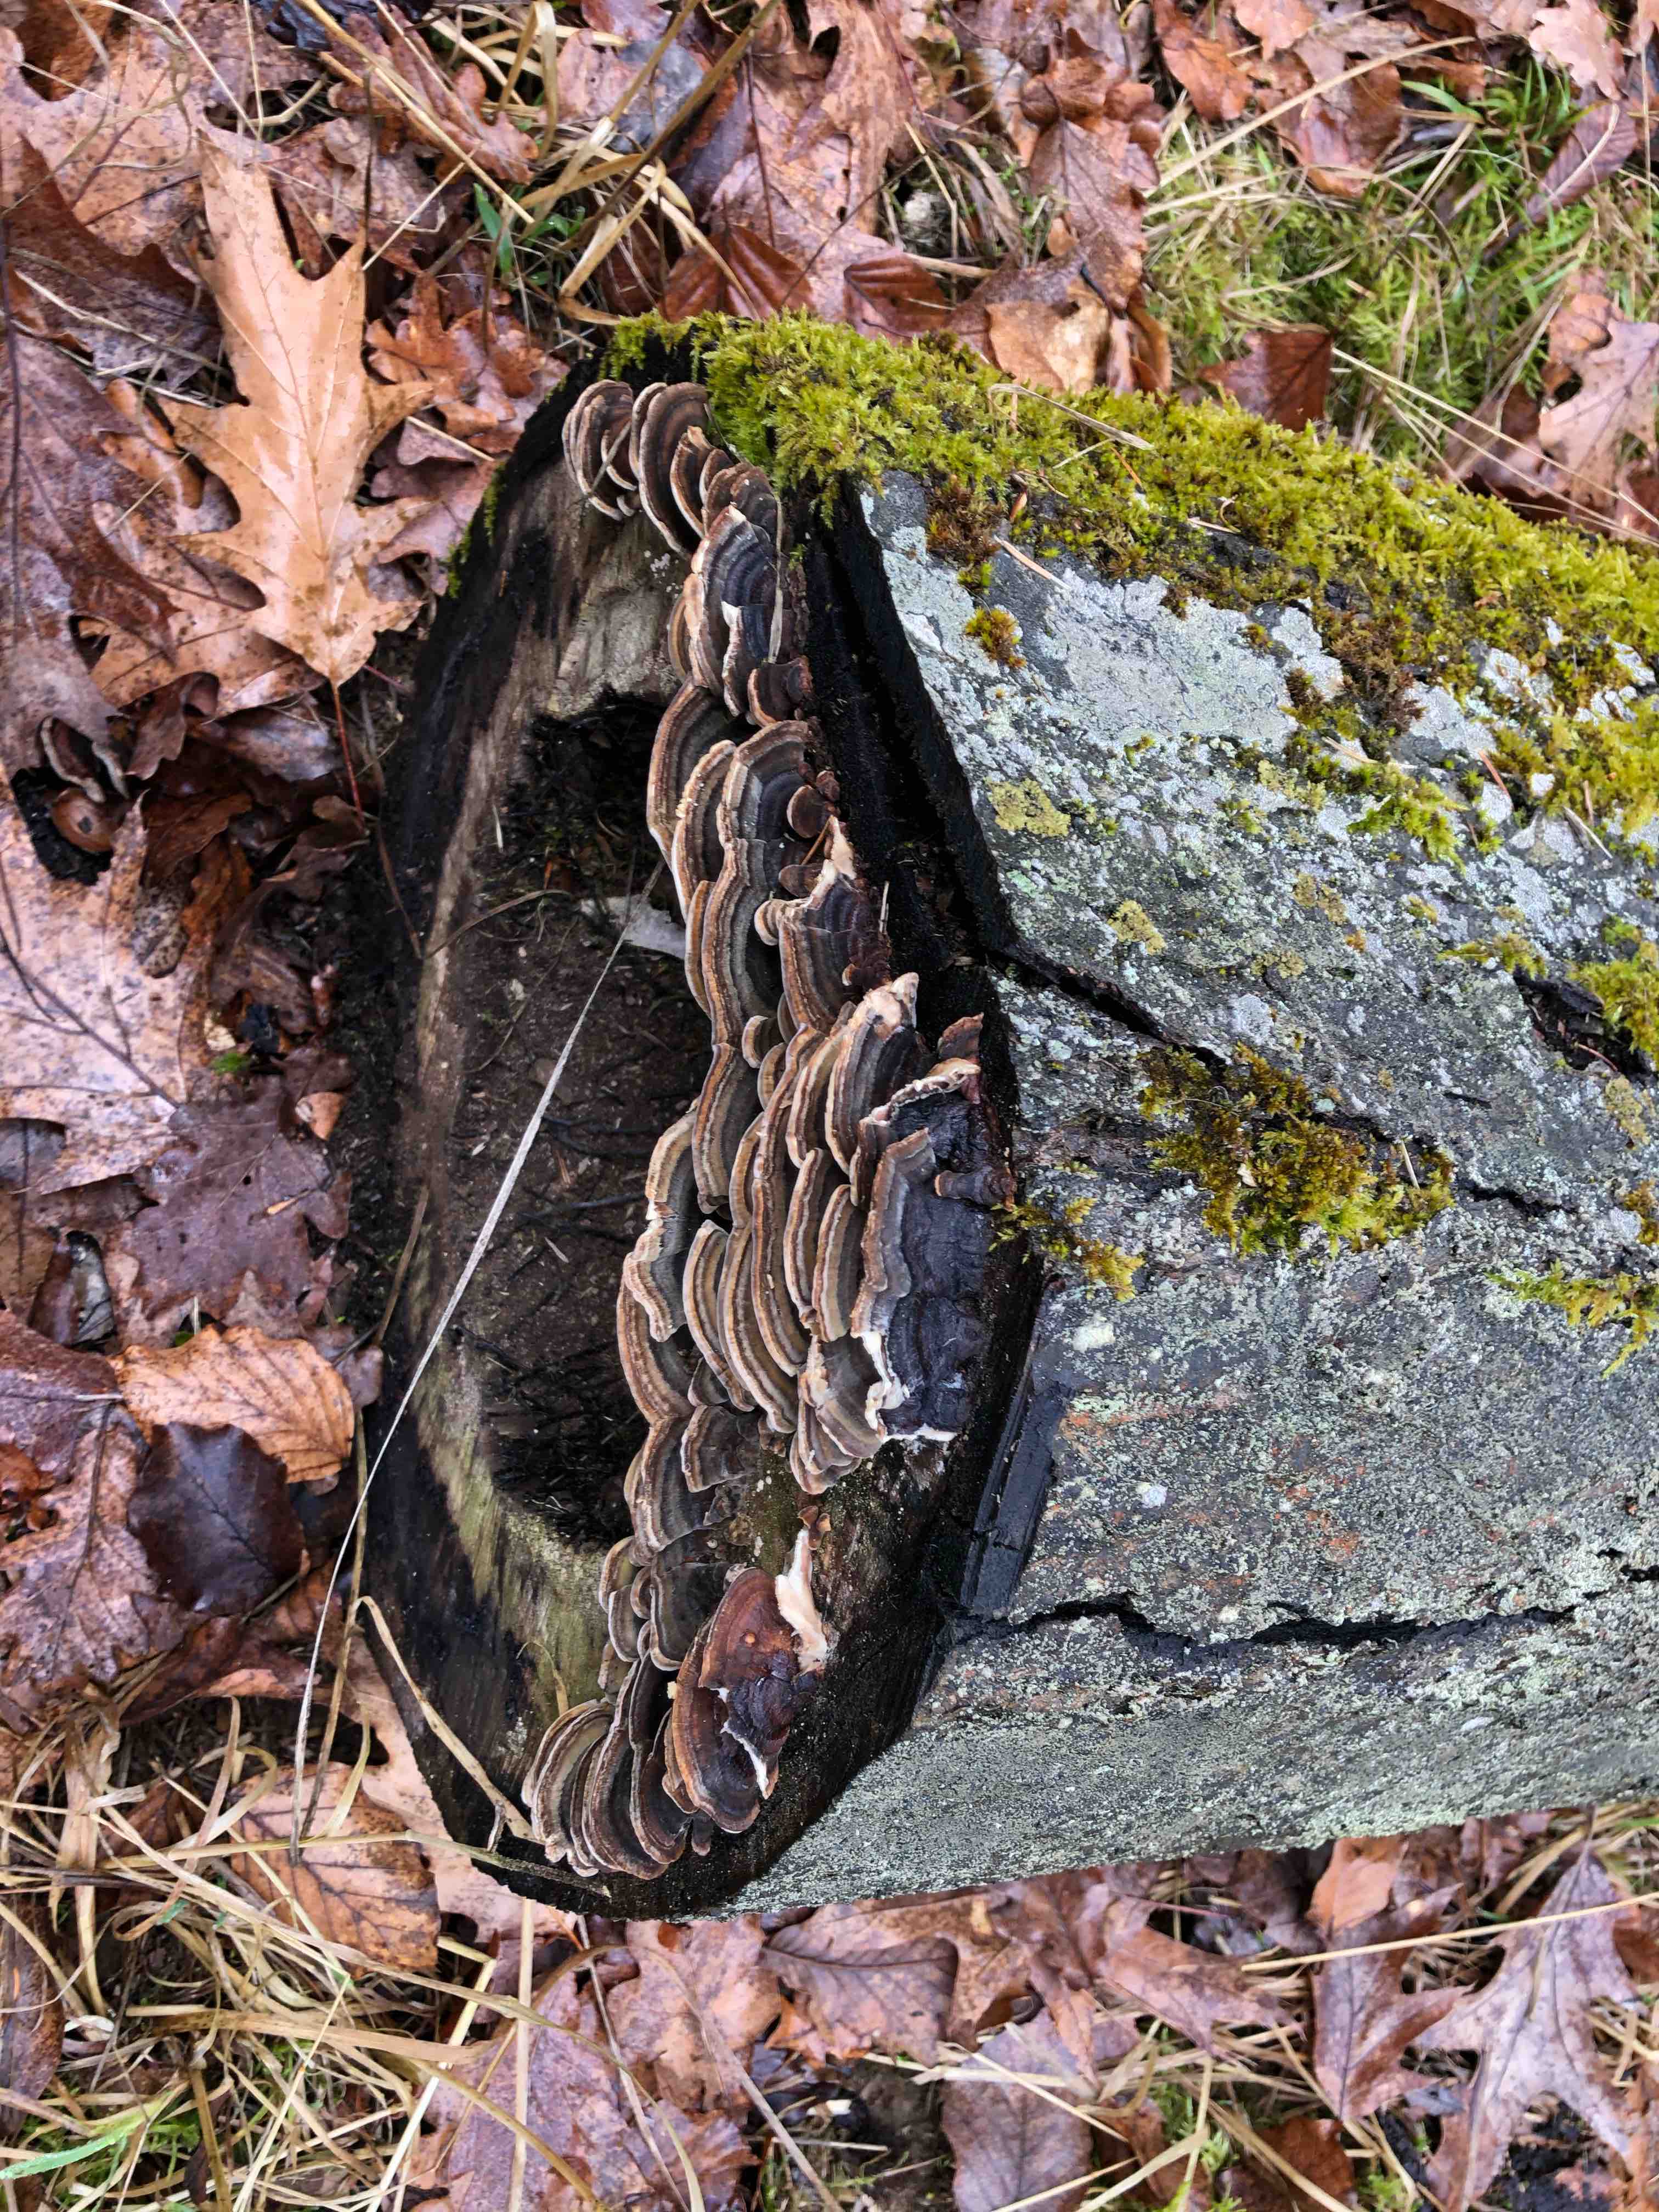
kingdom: Fungi
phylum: Basidiomycota
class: Agaricomycetes
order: Polyporales
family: Polyporaceae
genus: Trametes
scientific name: Trametes versicolor
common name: broget læderporesvamp
